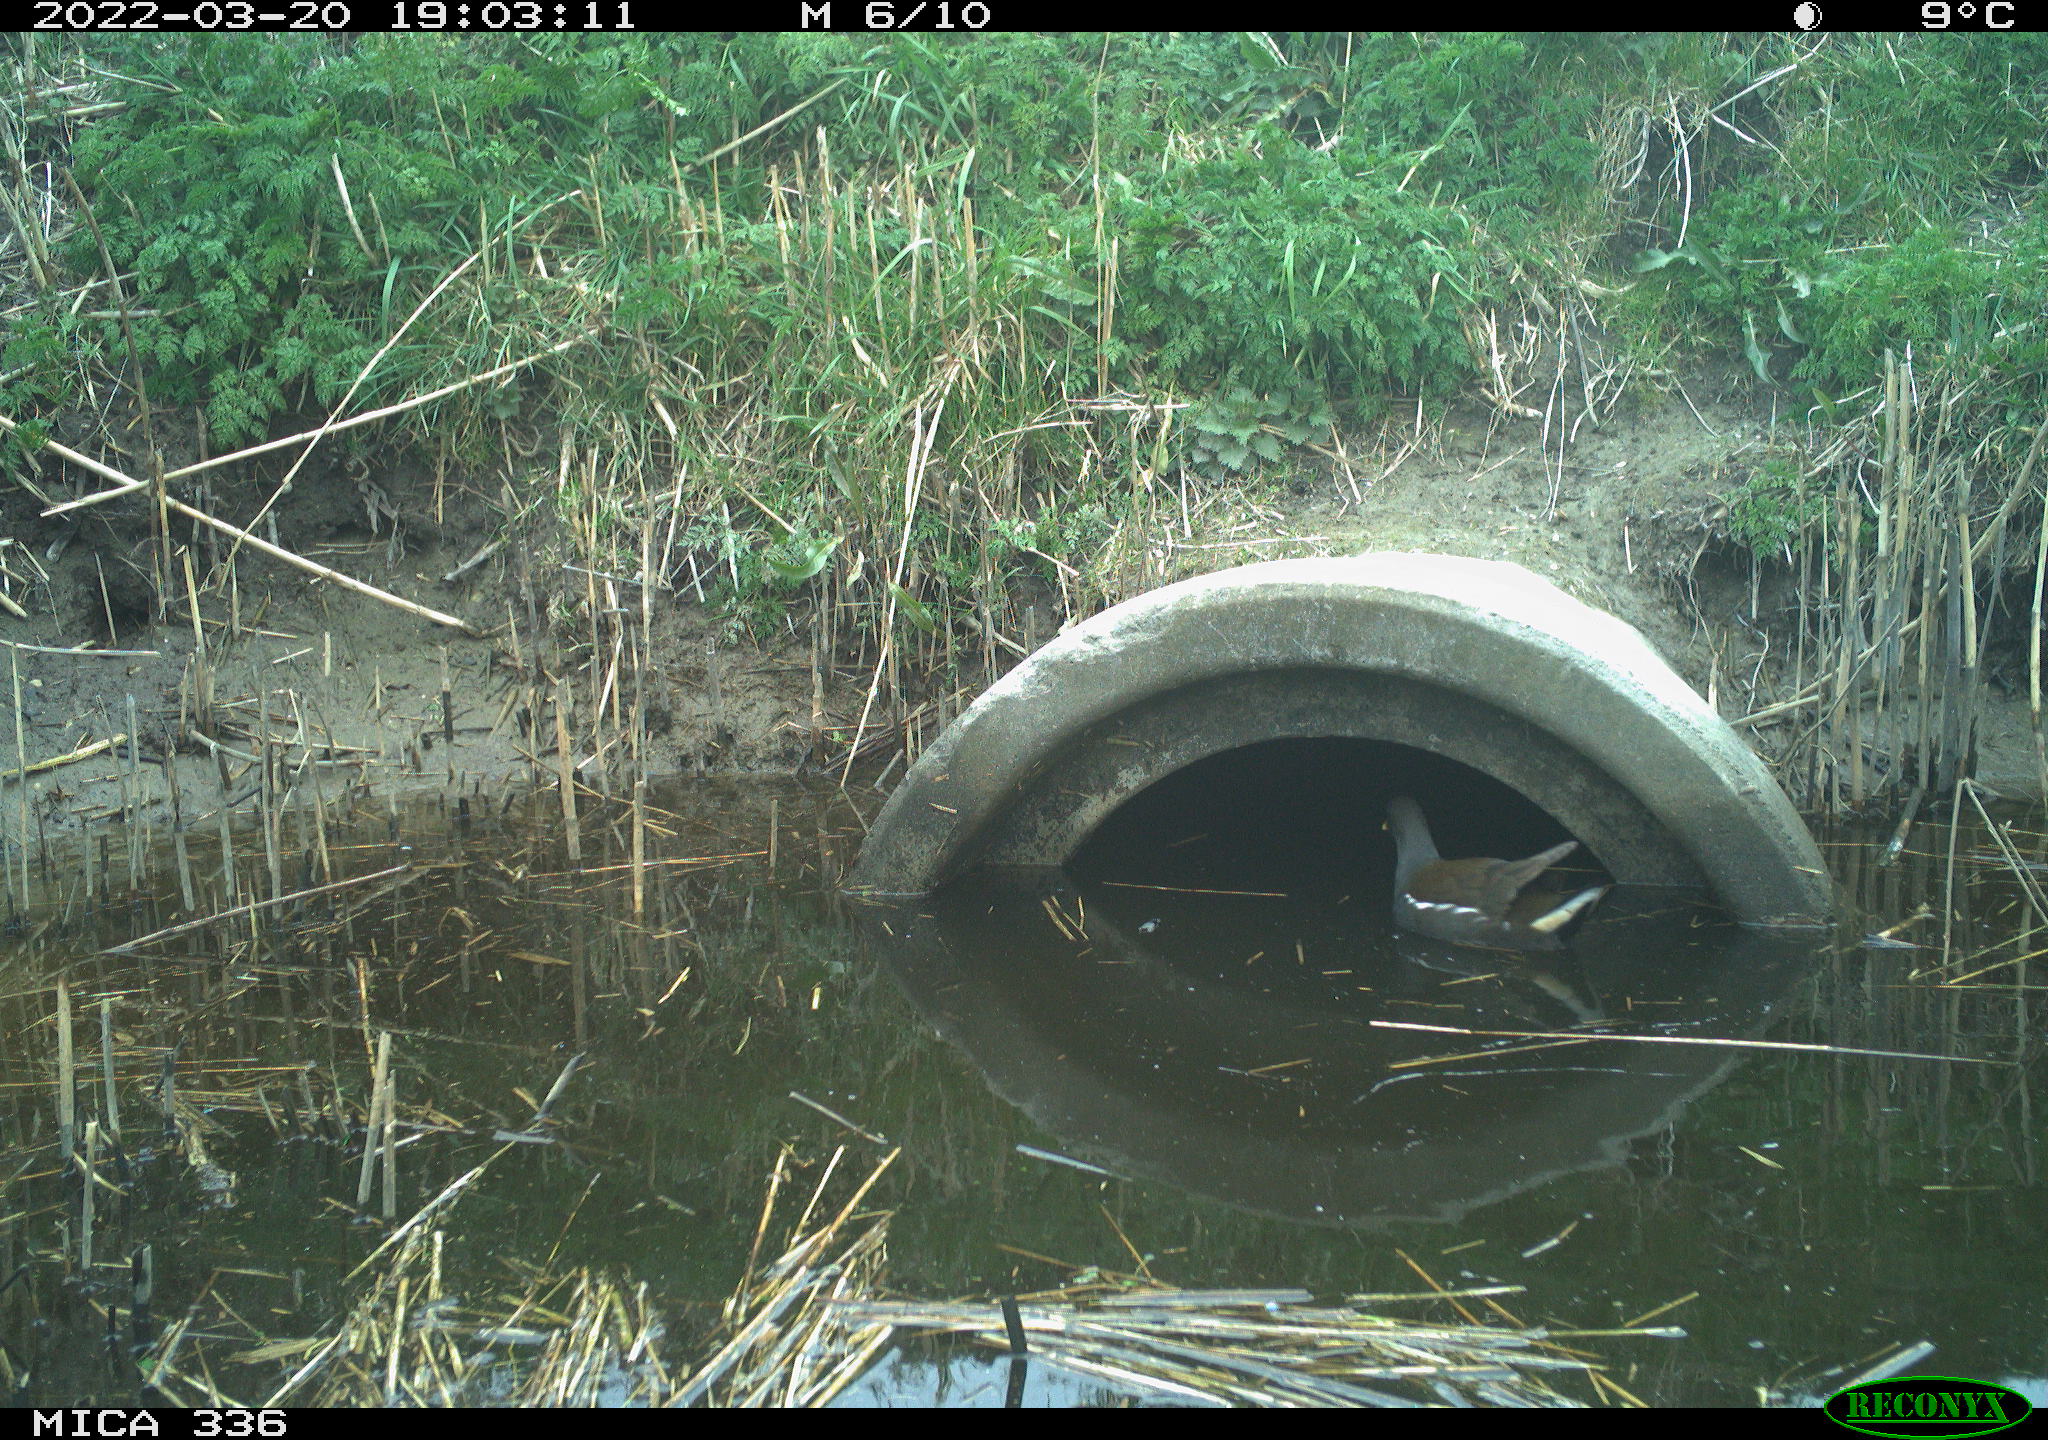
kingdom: Animalia
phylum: Chordata
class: Aves
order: Gruiformes
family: Rallidae
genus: Gallinula
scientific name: Gallinula chloropus
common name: Common moorhen
